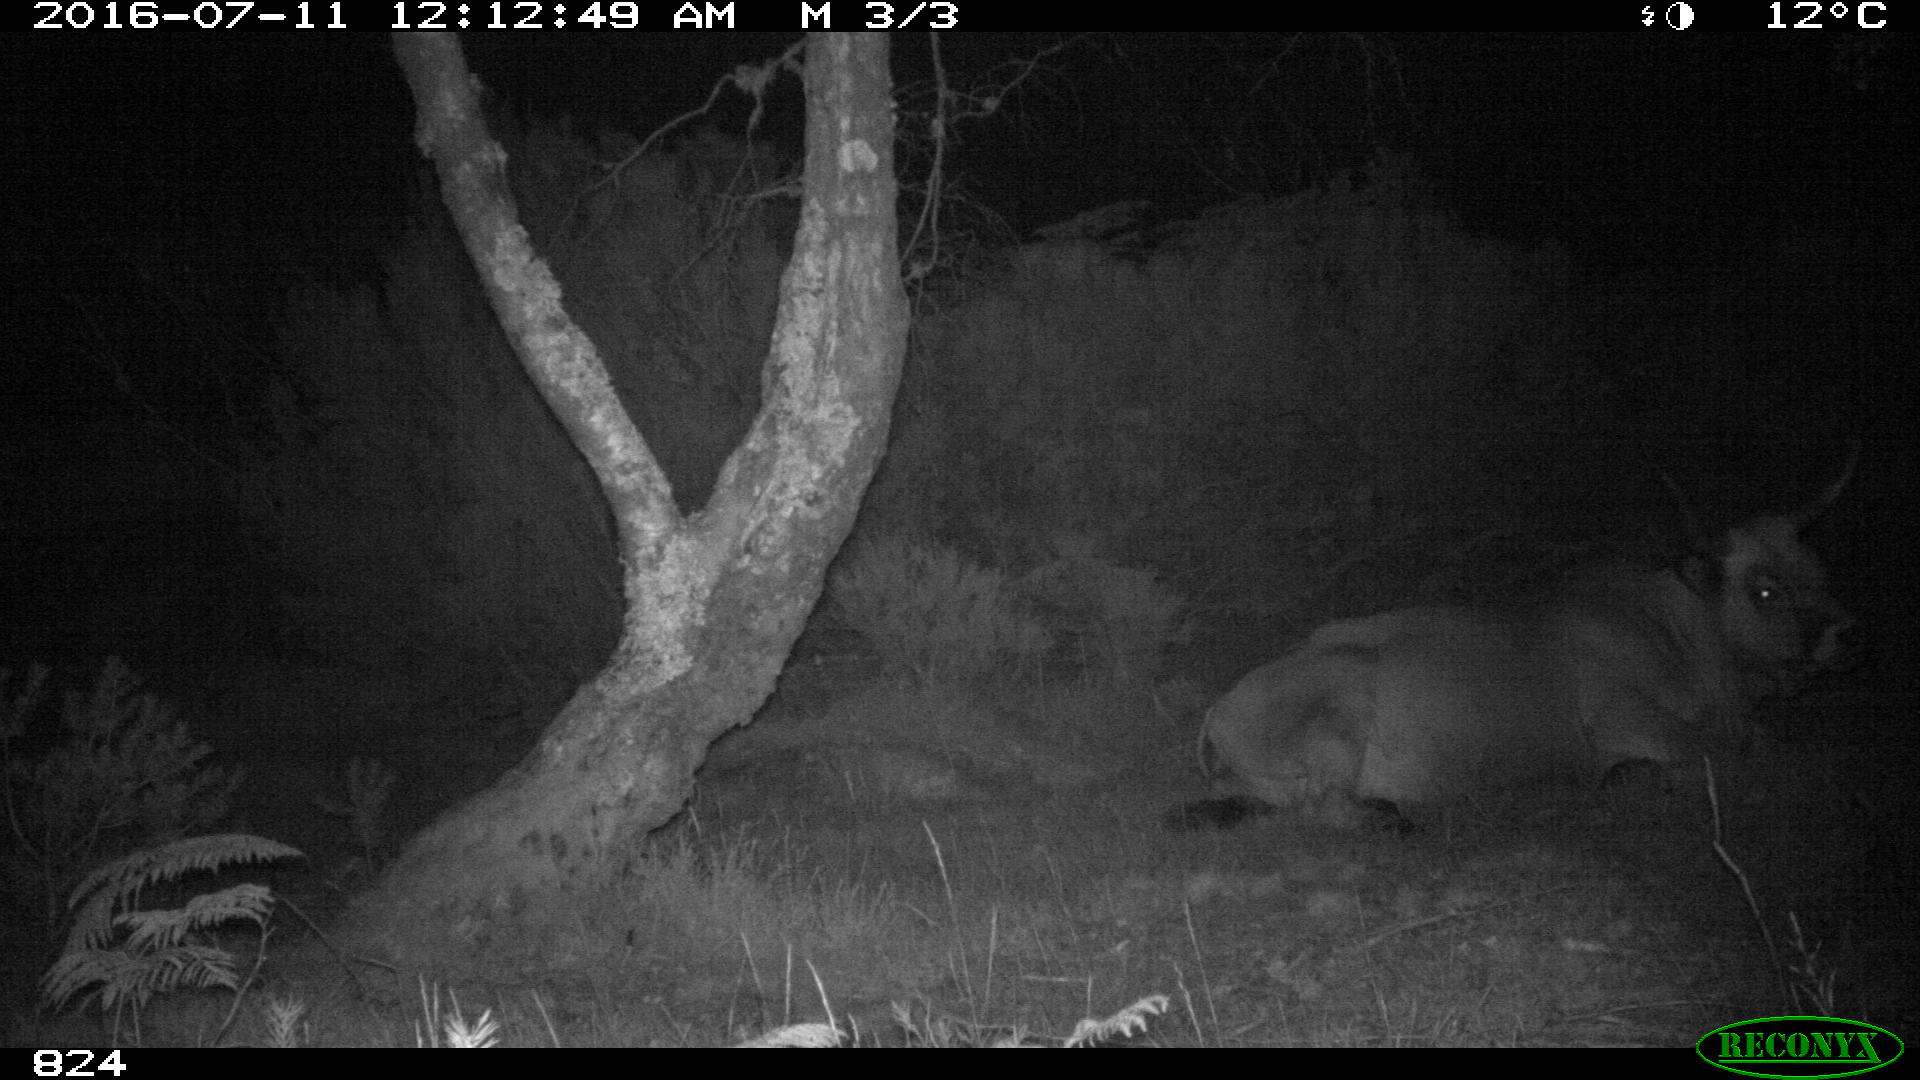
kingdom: Animalia
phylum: Chordata
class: Mammalia
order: Artiodactyla
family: Bovidae
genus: Bos
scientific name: Bos taurus
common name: Domesticated cattle
